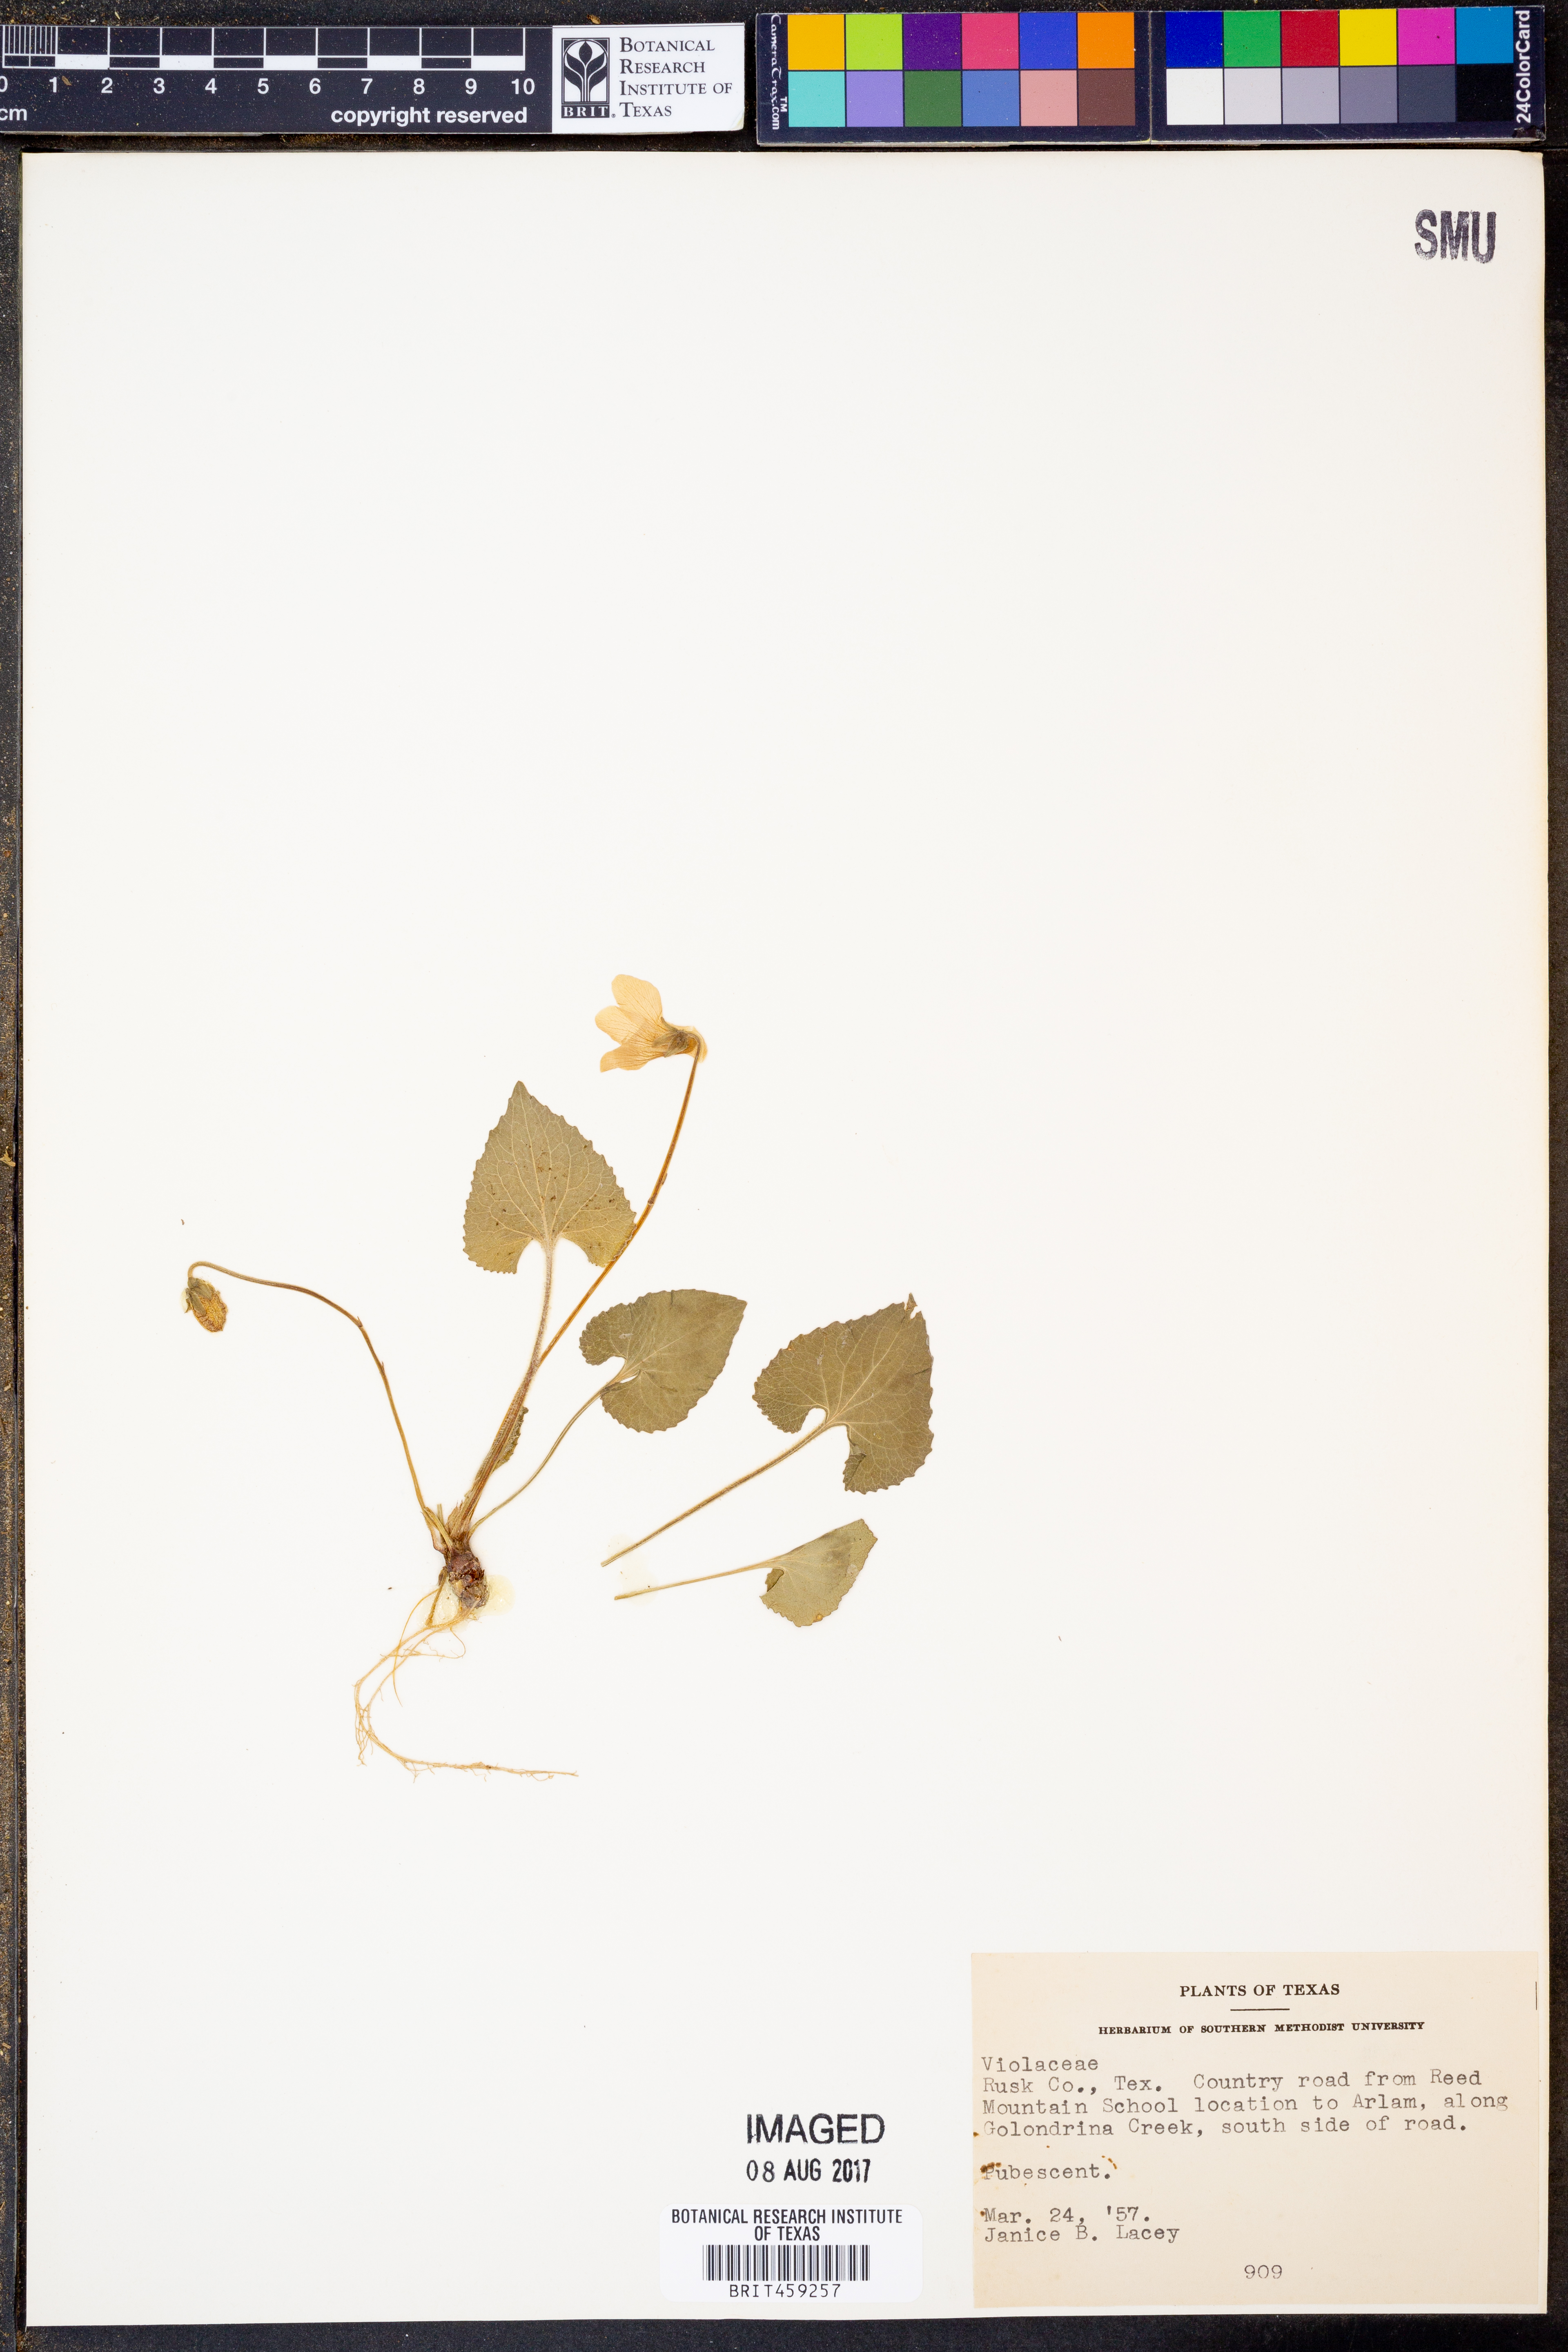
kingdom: Plantae
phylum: Tracheophyta
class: Magnoliopsida
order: Malpighiales
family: Violaceae
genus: Viola
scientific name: Viola abyssinica
